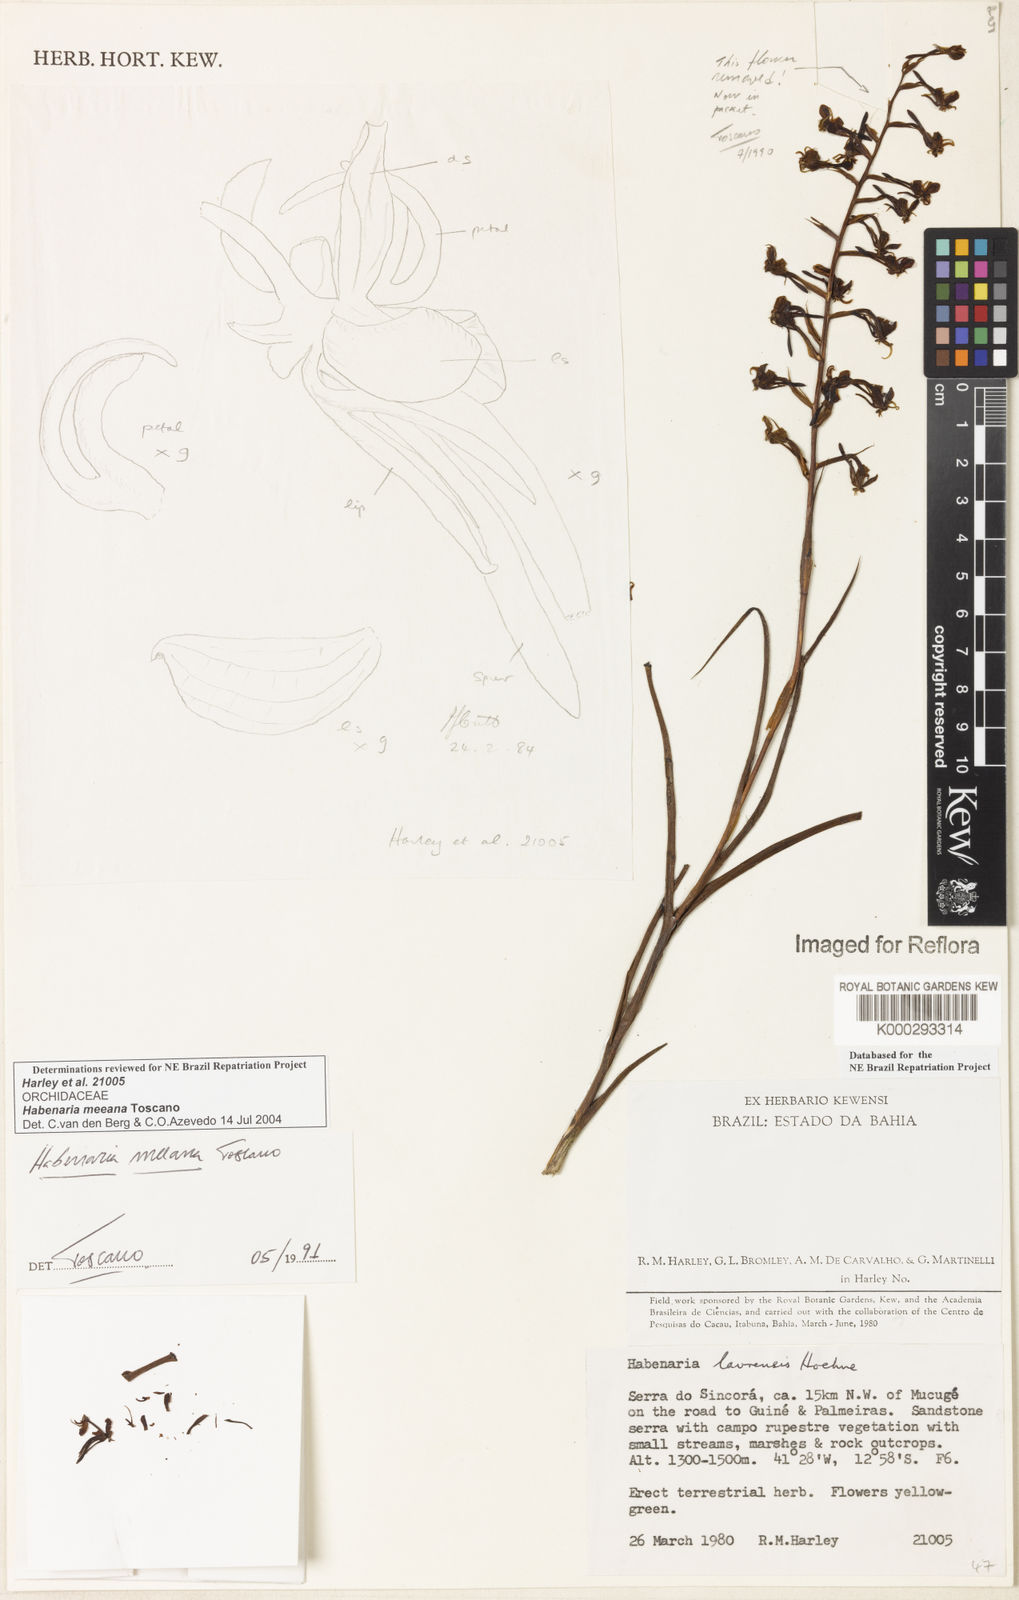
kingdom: Plantae
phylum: Tracheophyta
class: Liliopsida
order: Asparagales
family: Orchidaceae
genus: Habenaria
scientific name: Habenaria meeana
